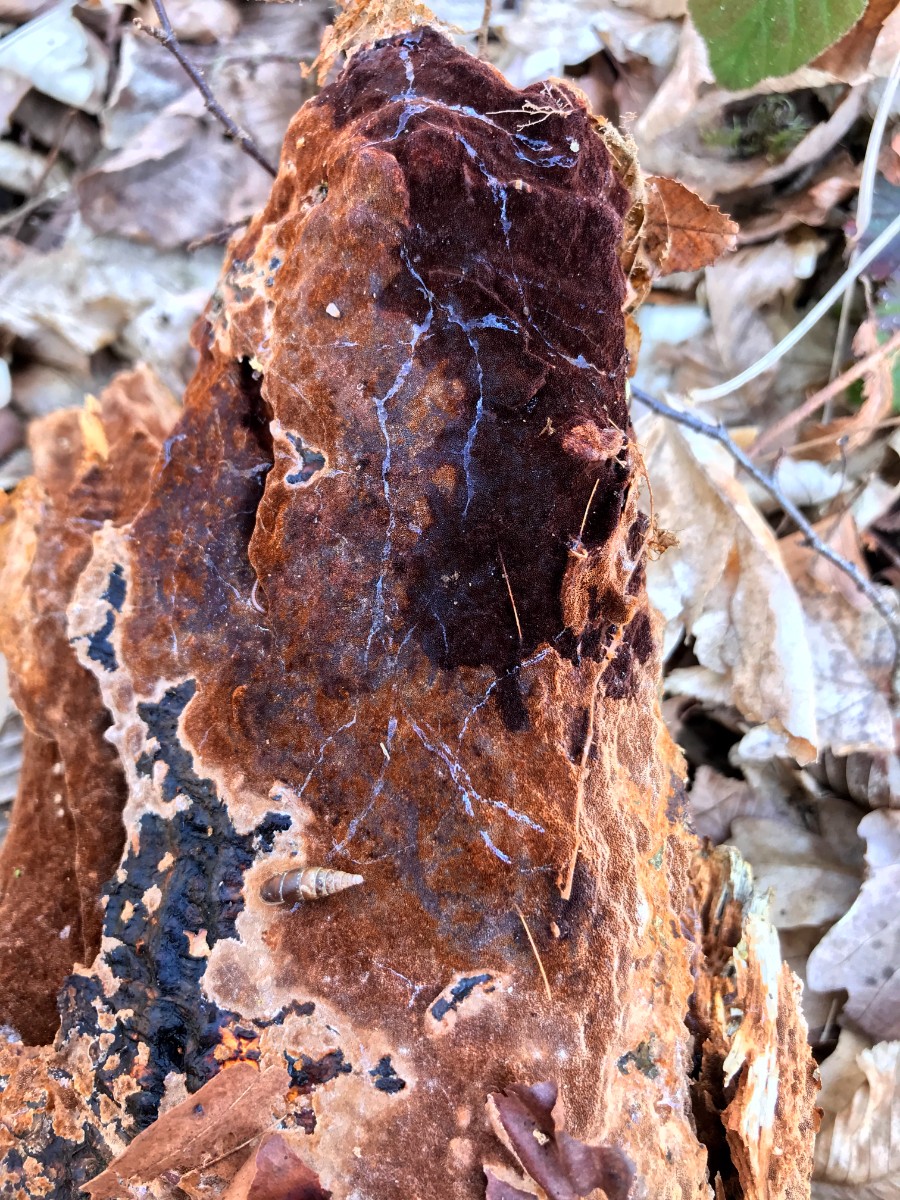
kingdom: Fungi
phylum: Basidiomycota
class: Agaricomycetes
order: Hymenochaetales
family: Hymenochaetaceae
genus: Fuscoporia
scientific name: Fuscoporia
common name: Ildporesvamp
